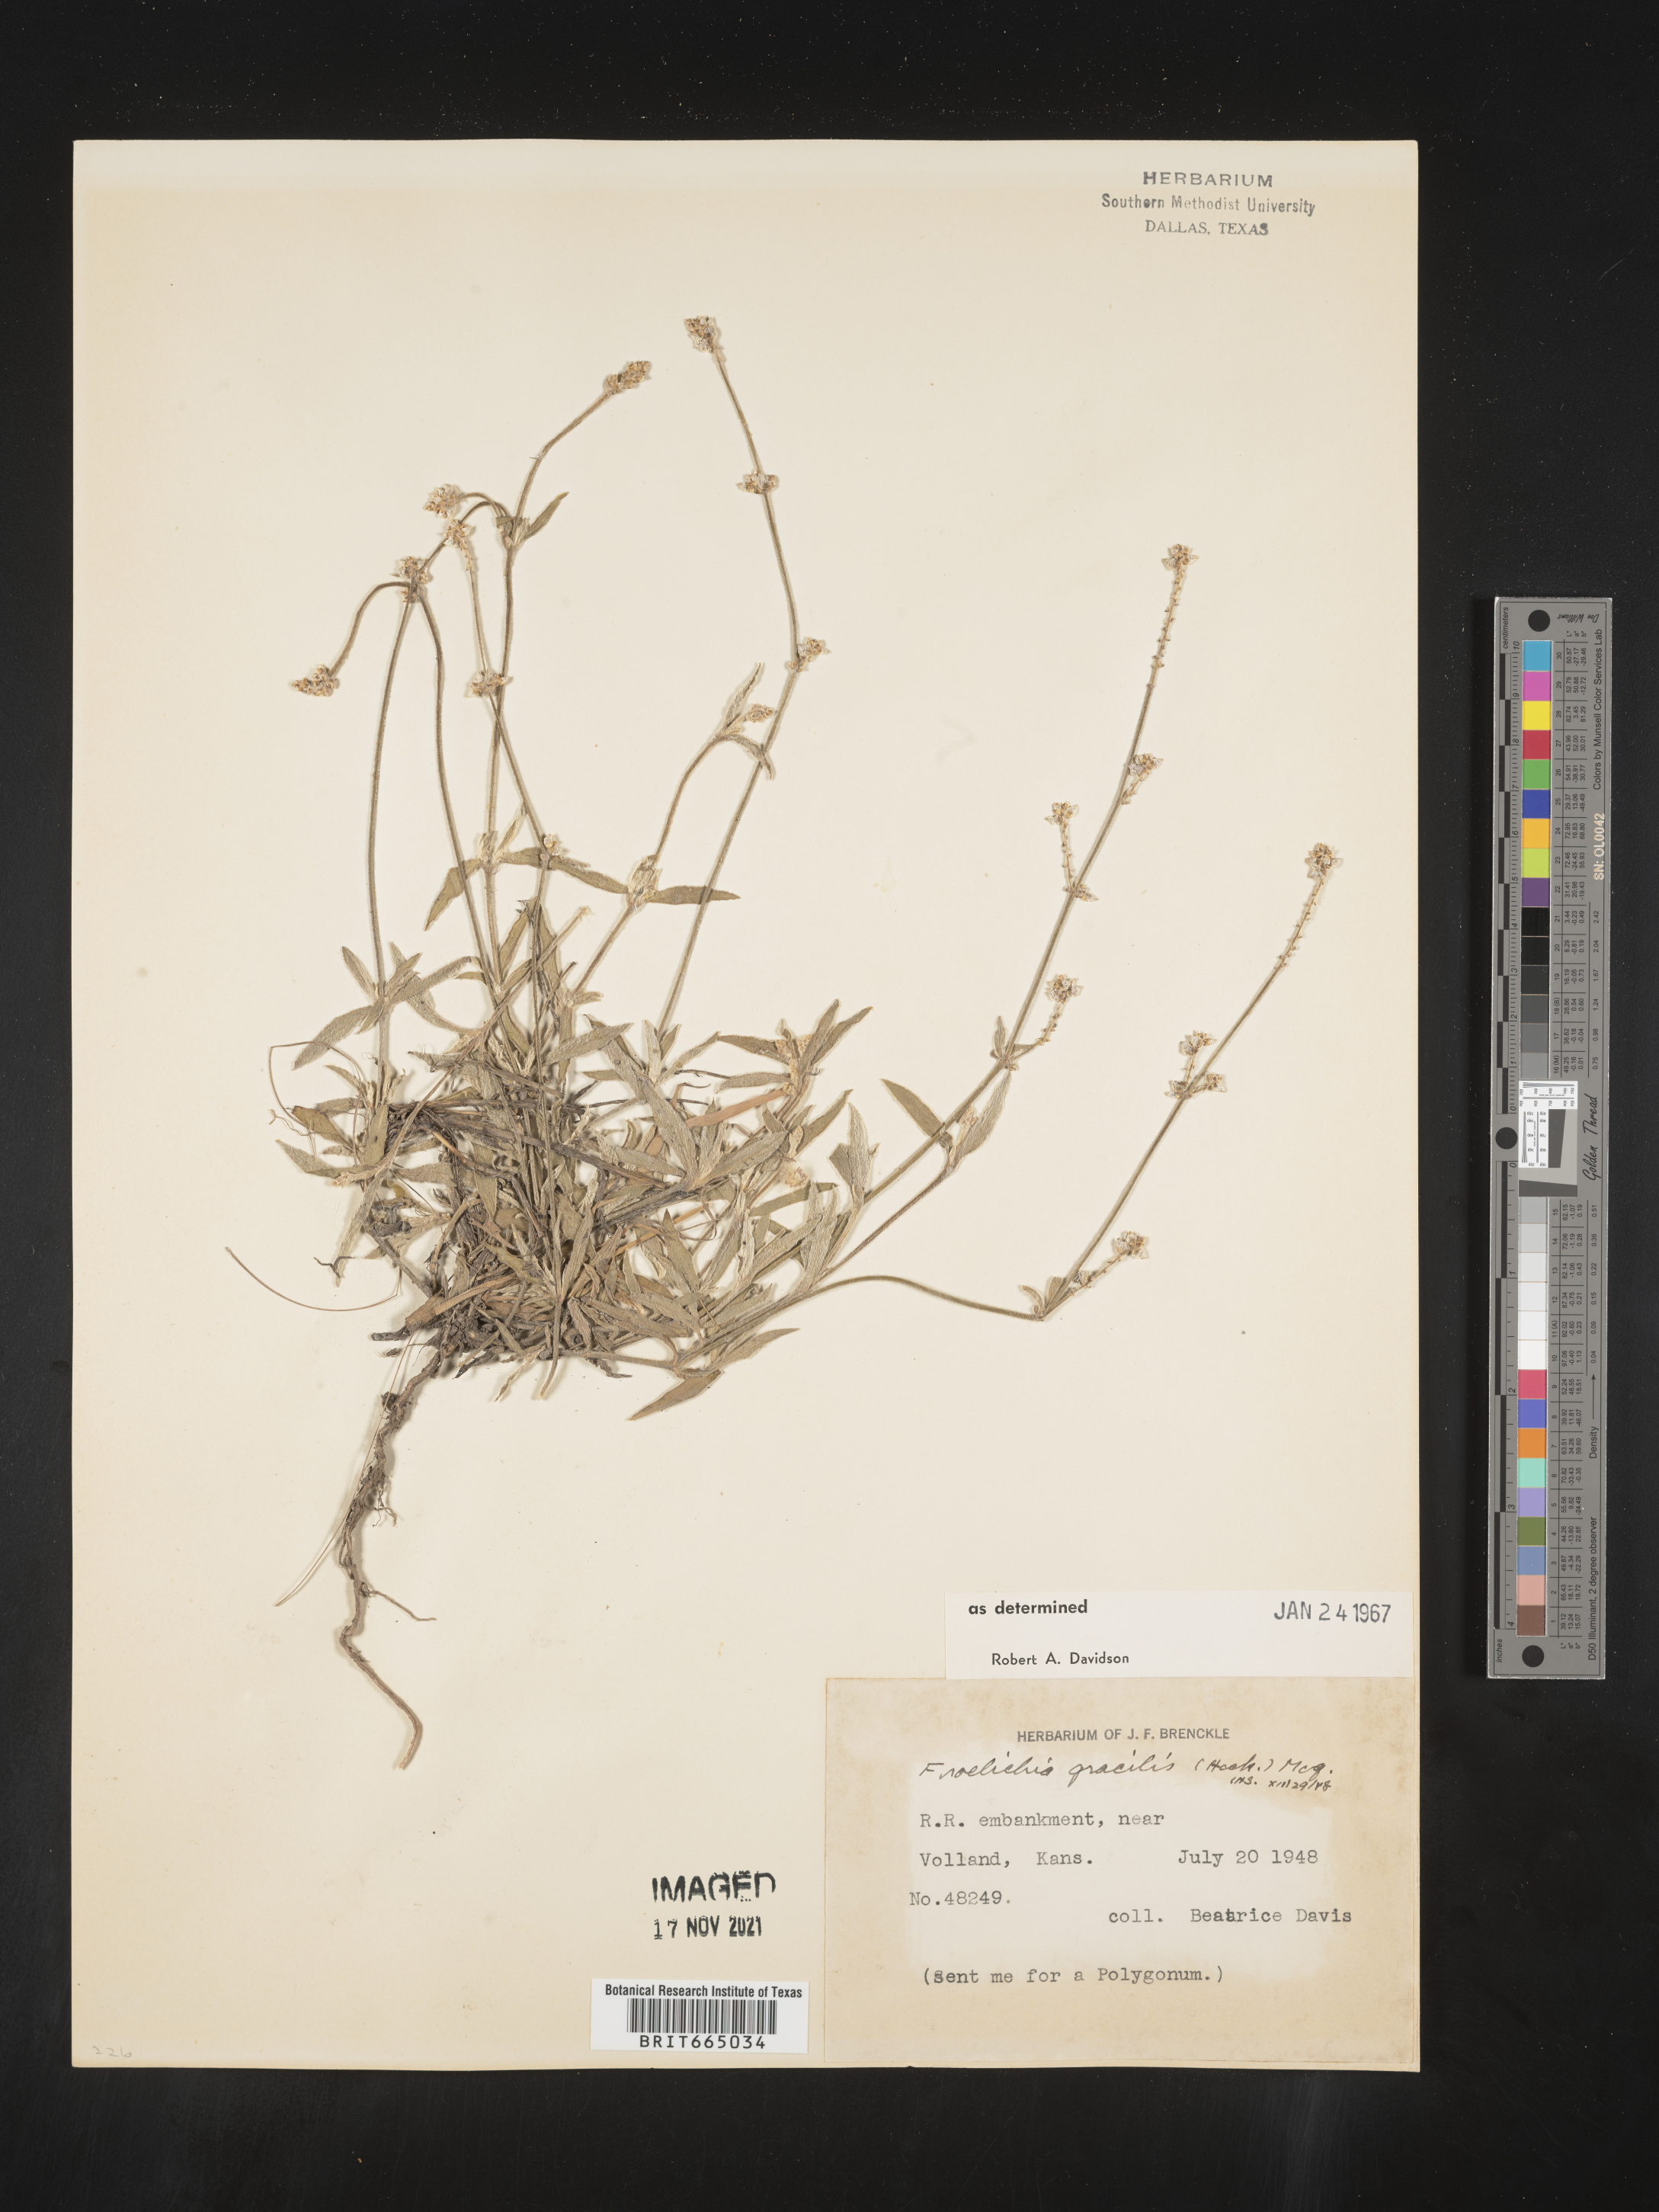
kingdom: Plantae
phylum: Tracheophyta
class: Magnoliopsida
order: Caryophyllales
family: Amaranthaceae
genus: Froelichia
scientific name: Froelichia gracilis
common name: Slender cottonweed
